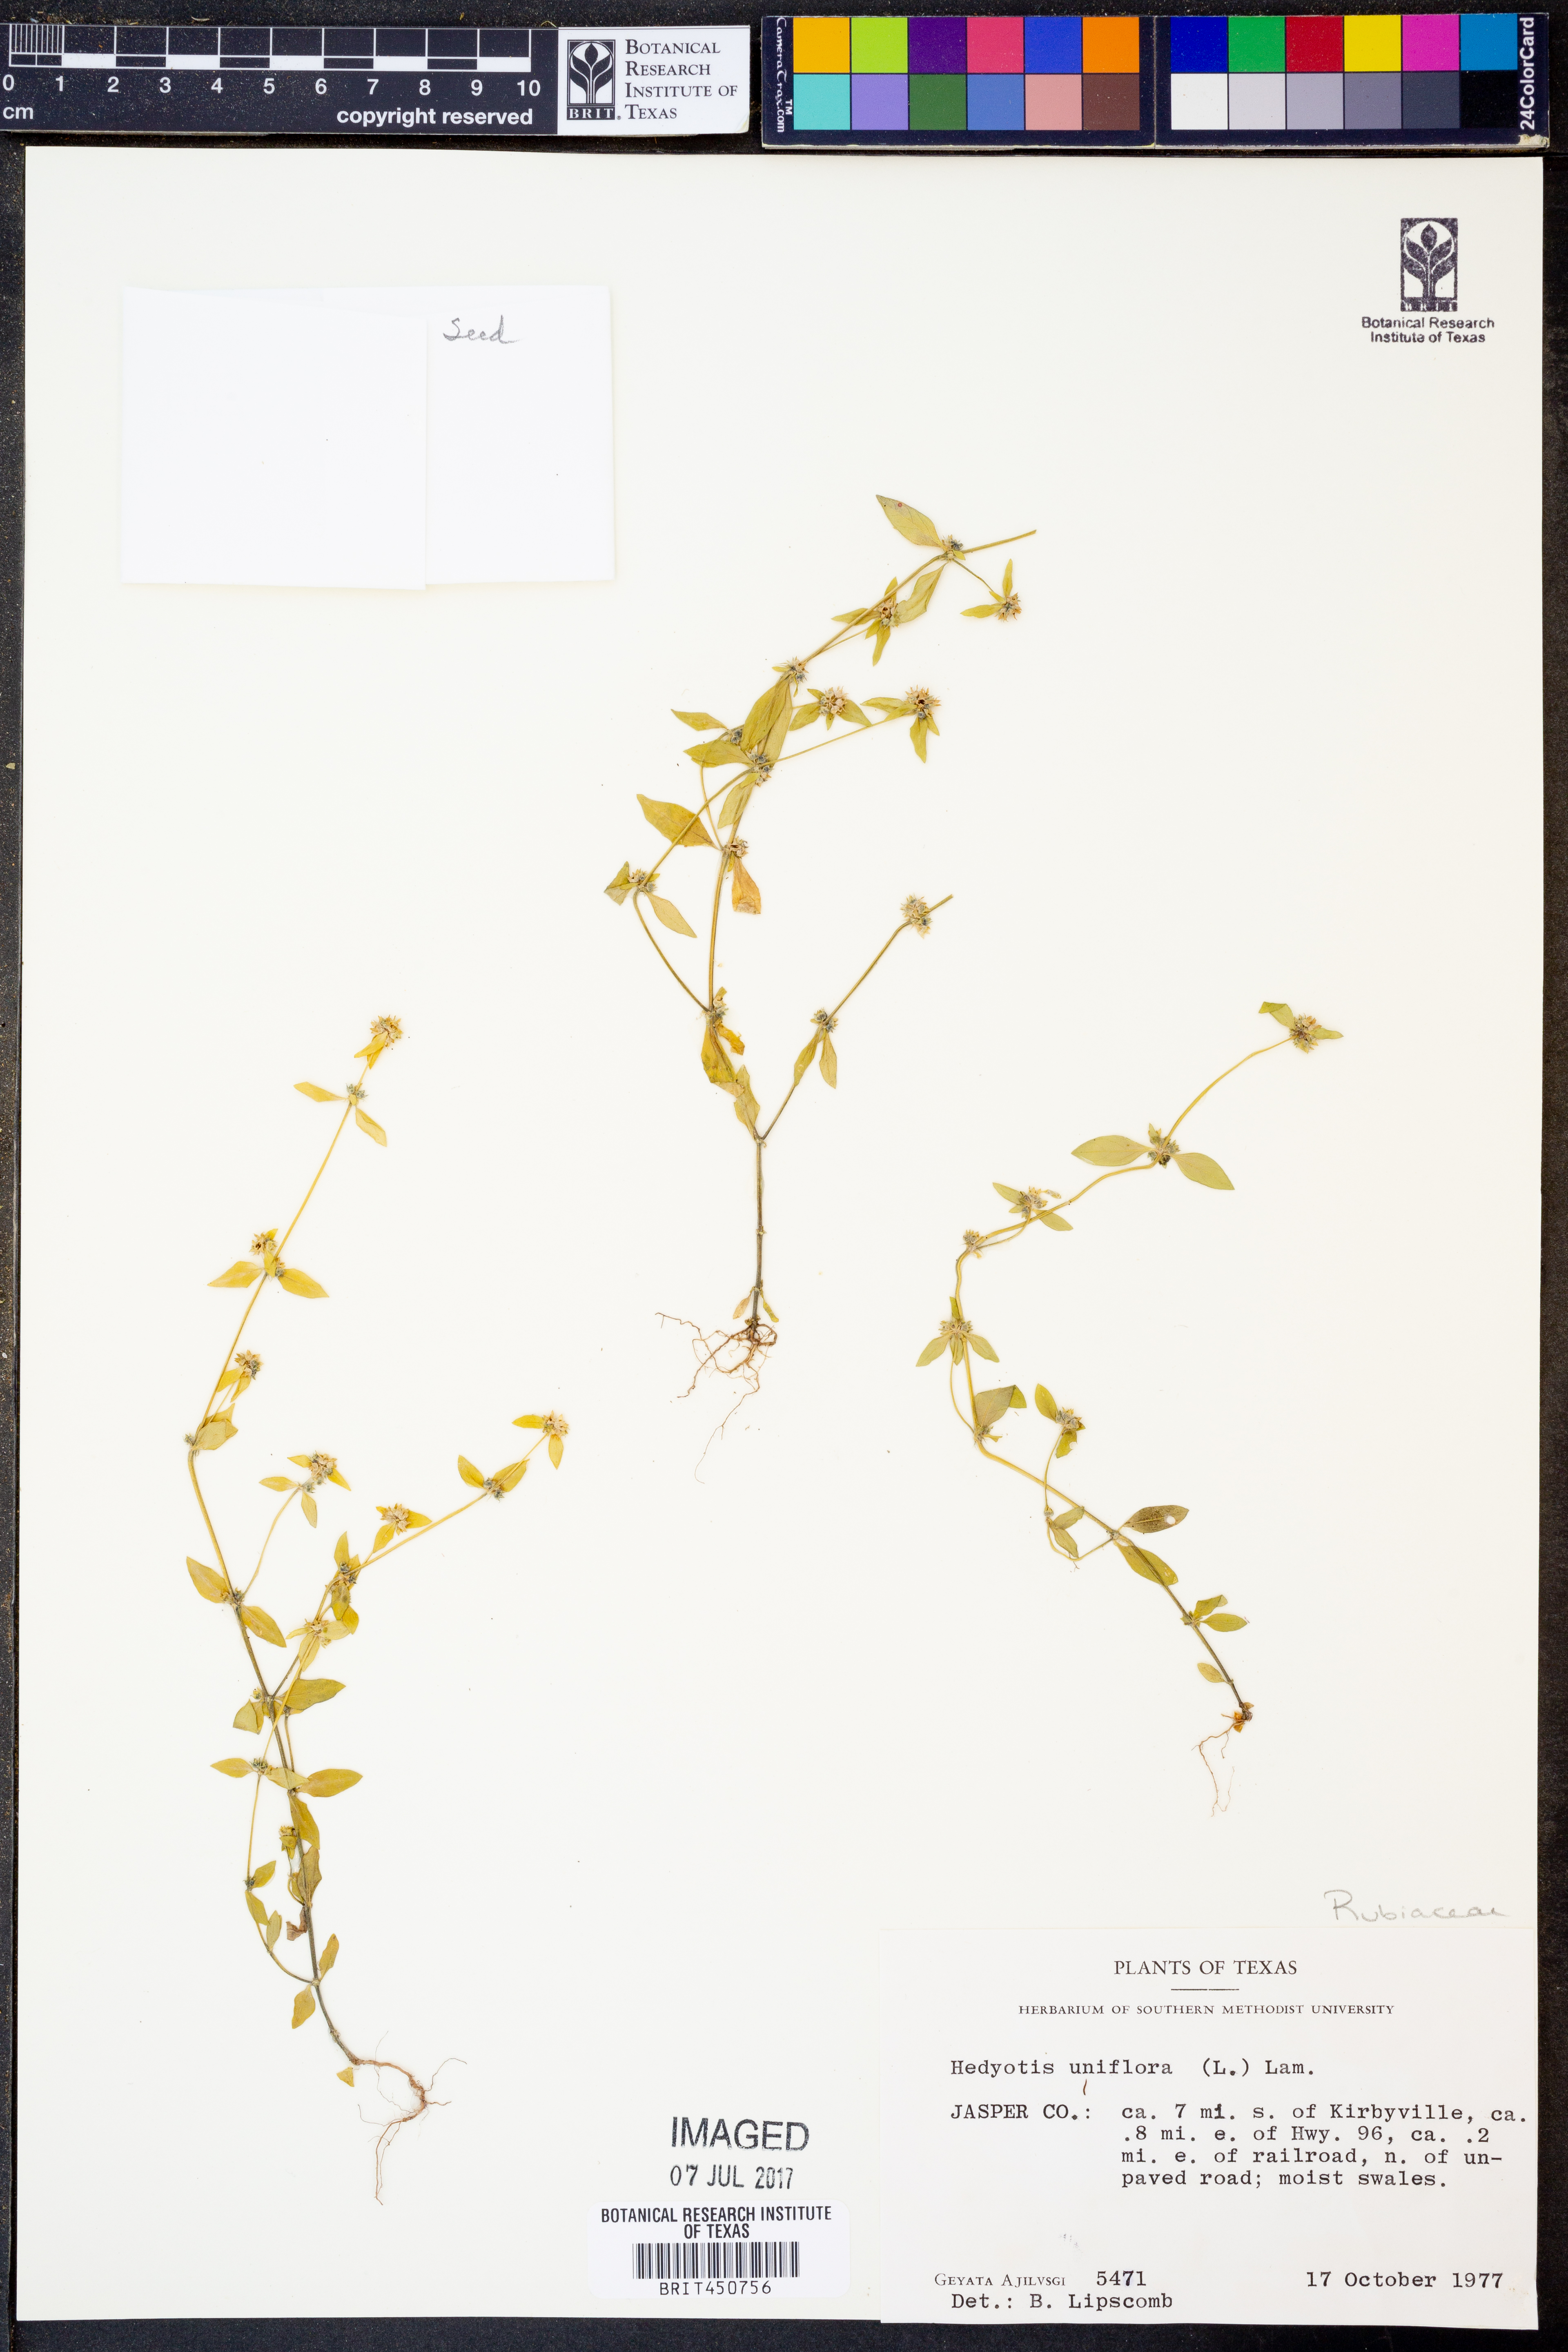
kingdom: Plantae
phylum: Tracheophyta
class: Magnoliopsida
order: Gentianales
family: Rubiaceae
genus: Edrastima
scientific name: Edrastima uniflora
